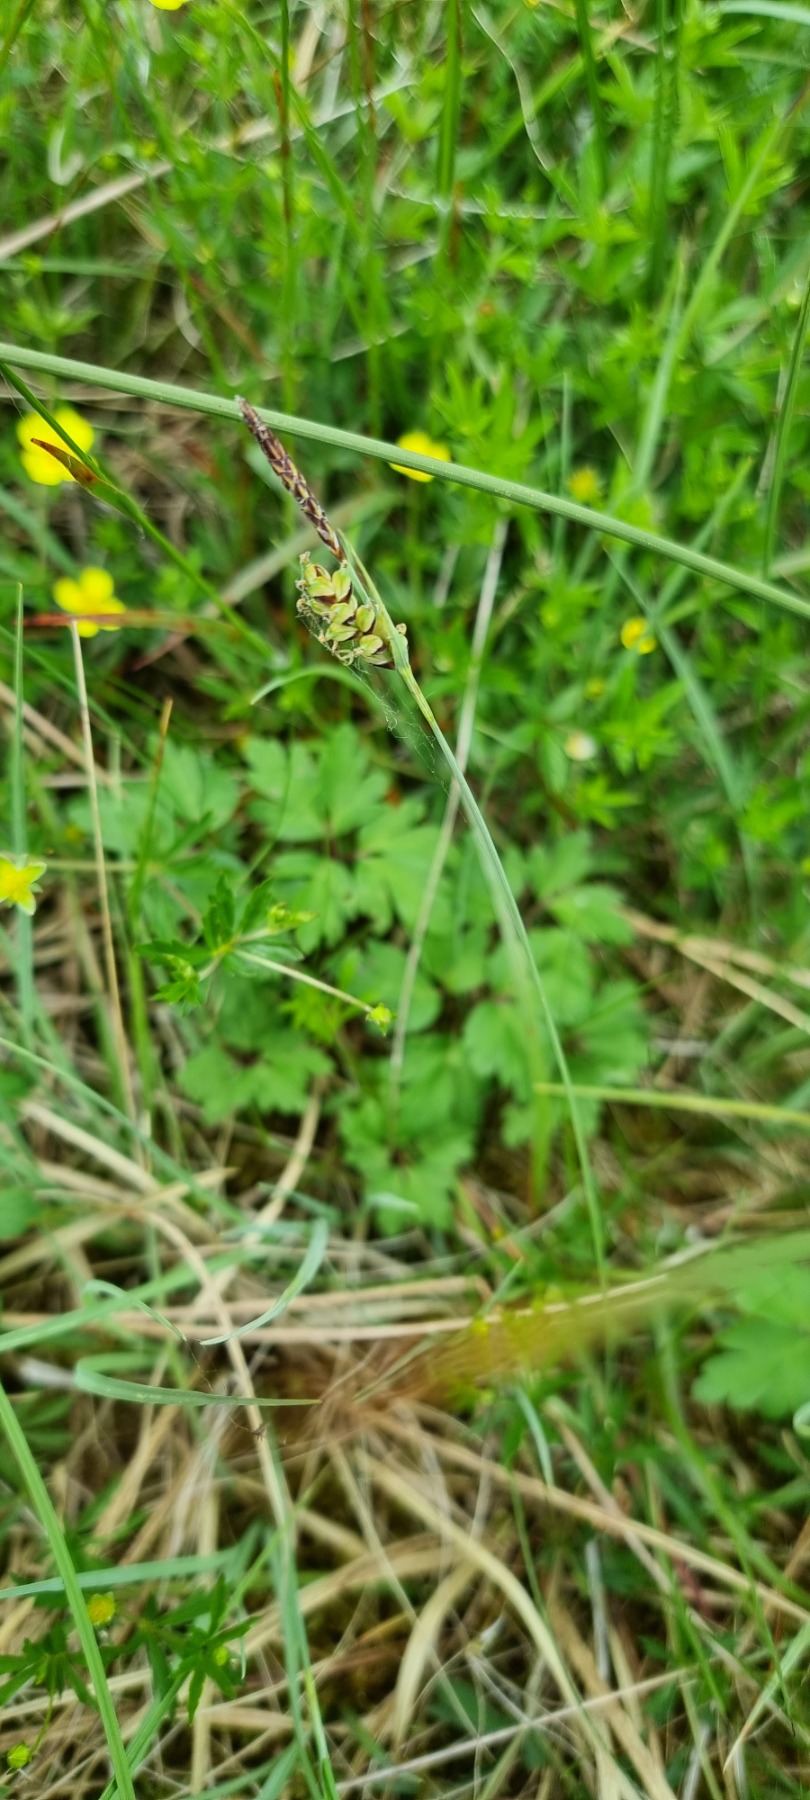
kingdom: Plantae
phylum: Tracheophyta
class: Liliopsida
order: Poales
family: Cyperaceae
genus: Carex
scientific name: Carex panicea
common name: Hirse-star
